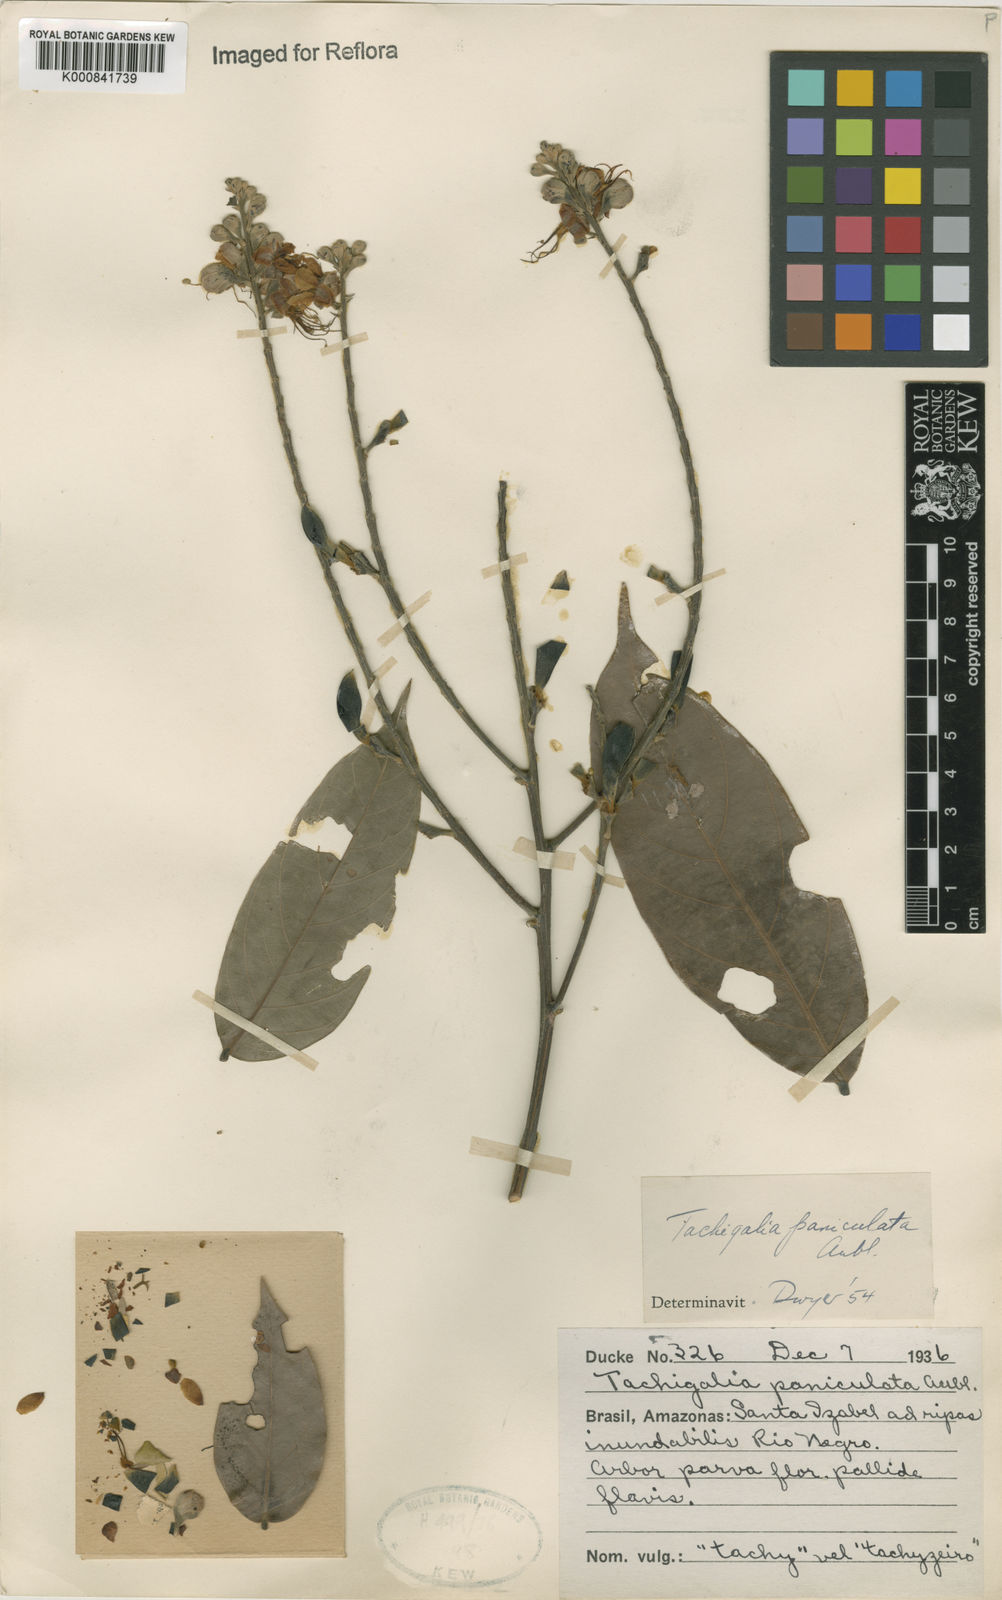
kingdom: Plantae
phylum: Tracheophyta
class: Magnoliopsida
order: Fabales
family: Fabaceae
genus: Tachigali
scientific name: Tachigali paniculata
